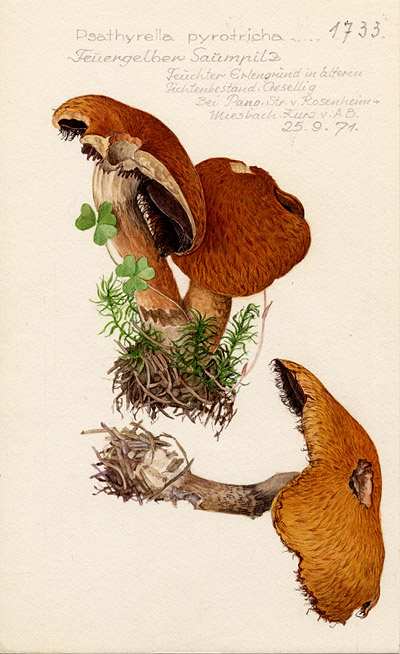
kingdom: Fungi
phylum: Basidiomycota
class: Agaricomycetes
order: Agaricales
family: Psathyrellaceae
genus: Lacrymaria
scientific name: Lacrymaria pyrotricha
